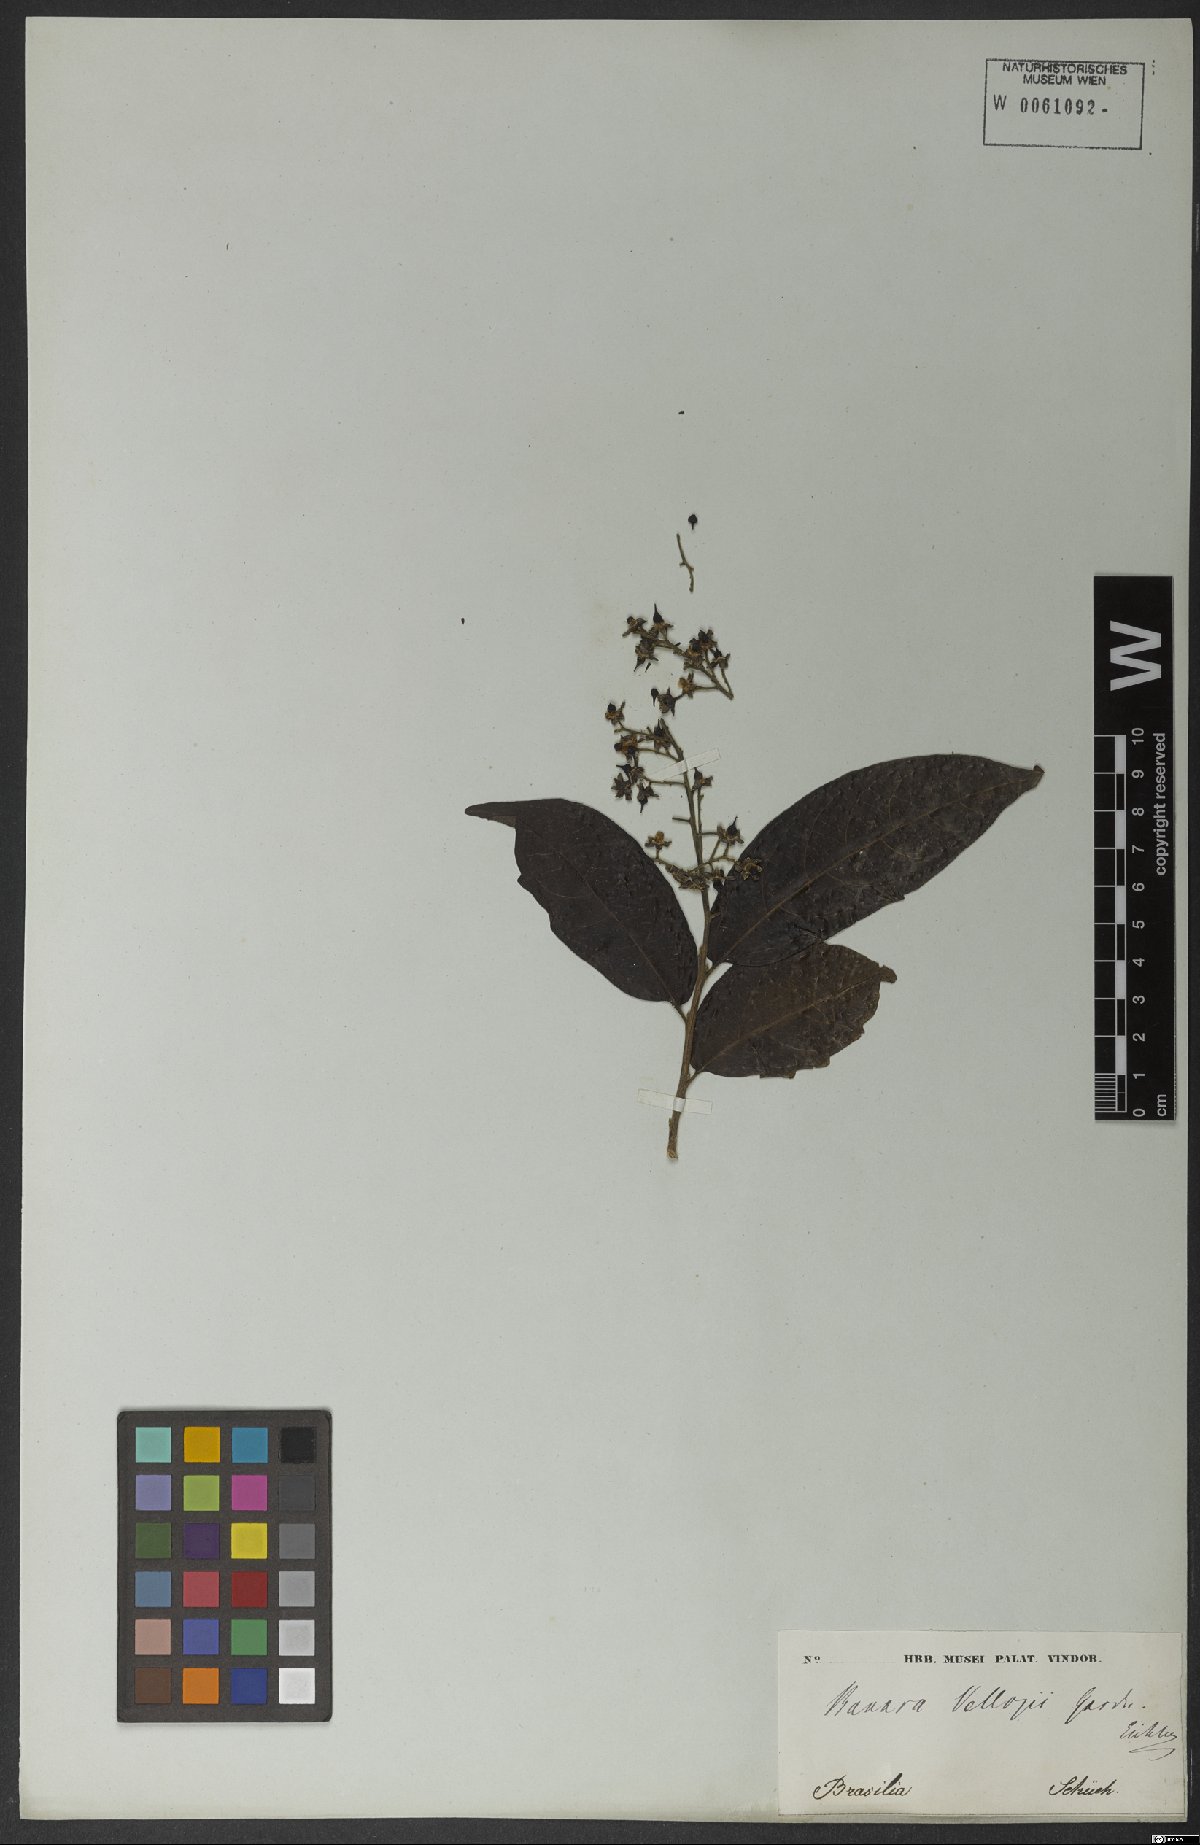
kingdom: Plantae
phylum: Tracheophyta
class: Magnoliopsida
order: Malpighiales
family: Salicaceae
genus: Banara
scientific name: Banara serrata
